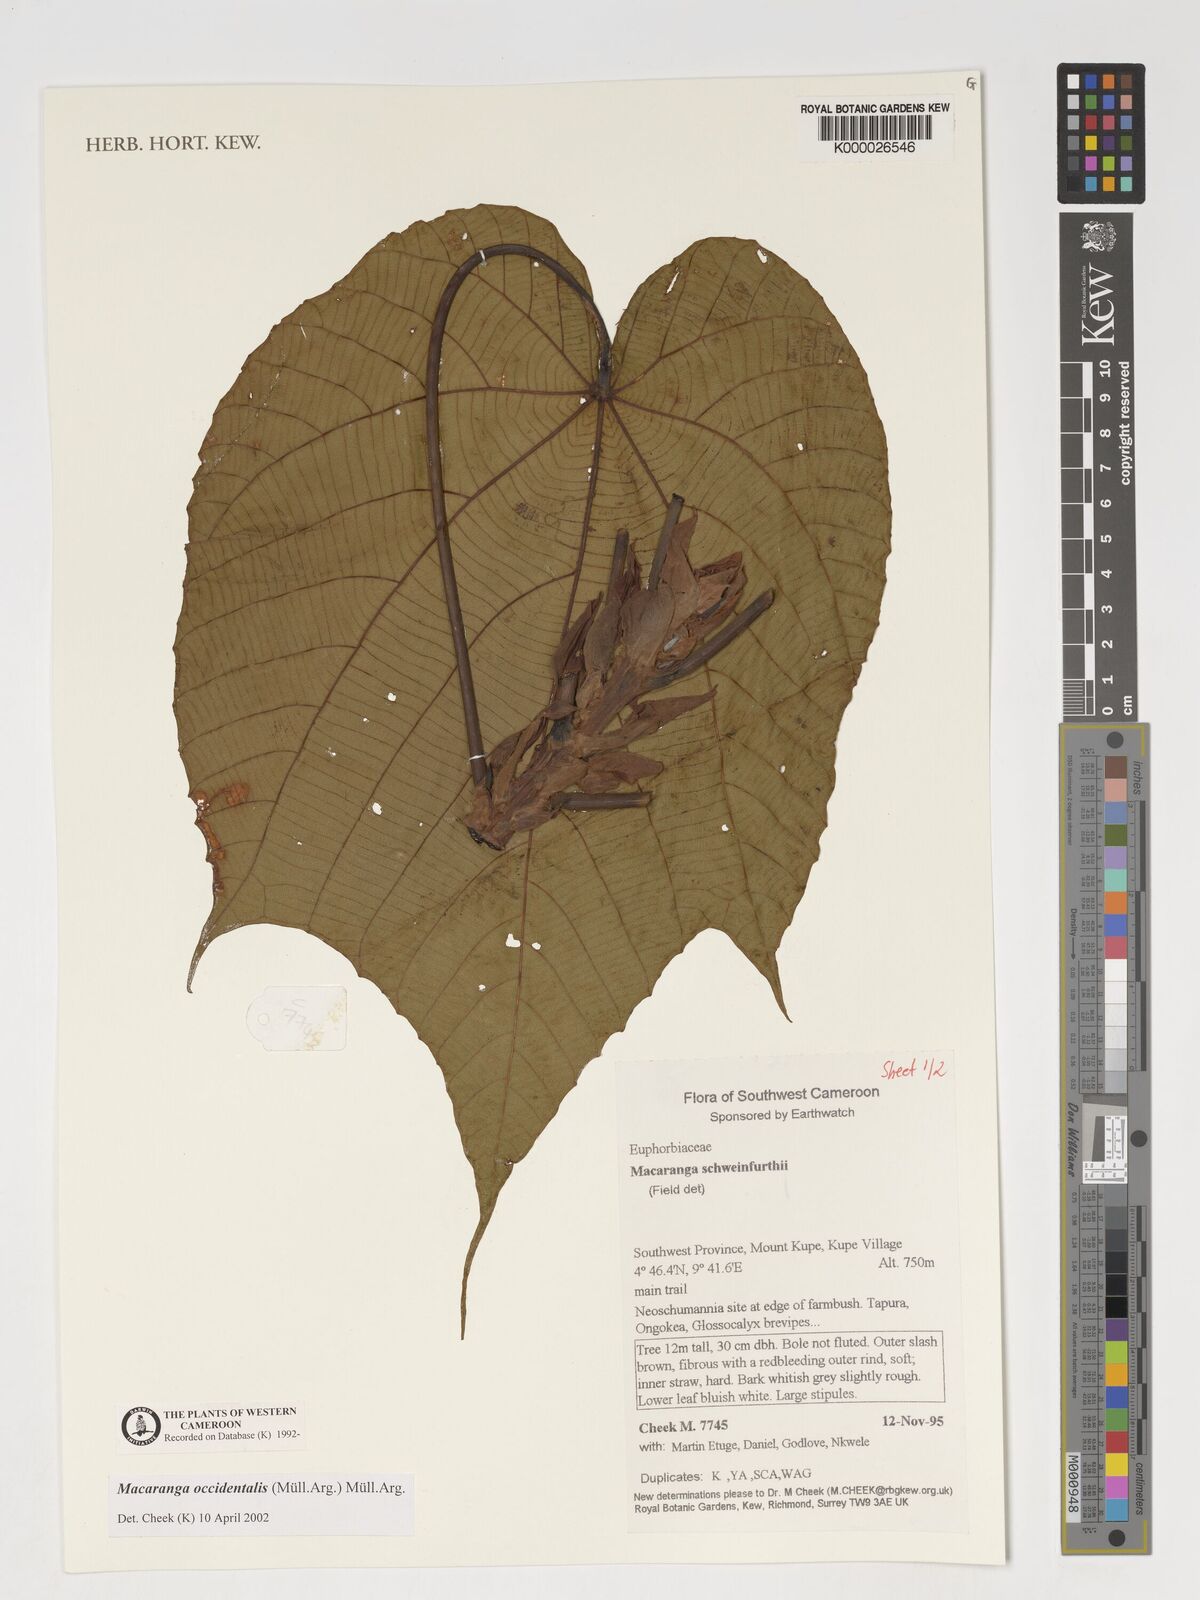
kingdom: Plantae
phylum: Tracheophyta
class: Magnoliopsida
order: Malpighiales
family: Euphorbiaceae
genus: Macaranga
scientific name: Macaranga
